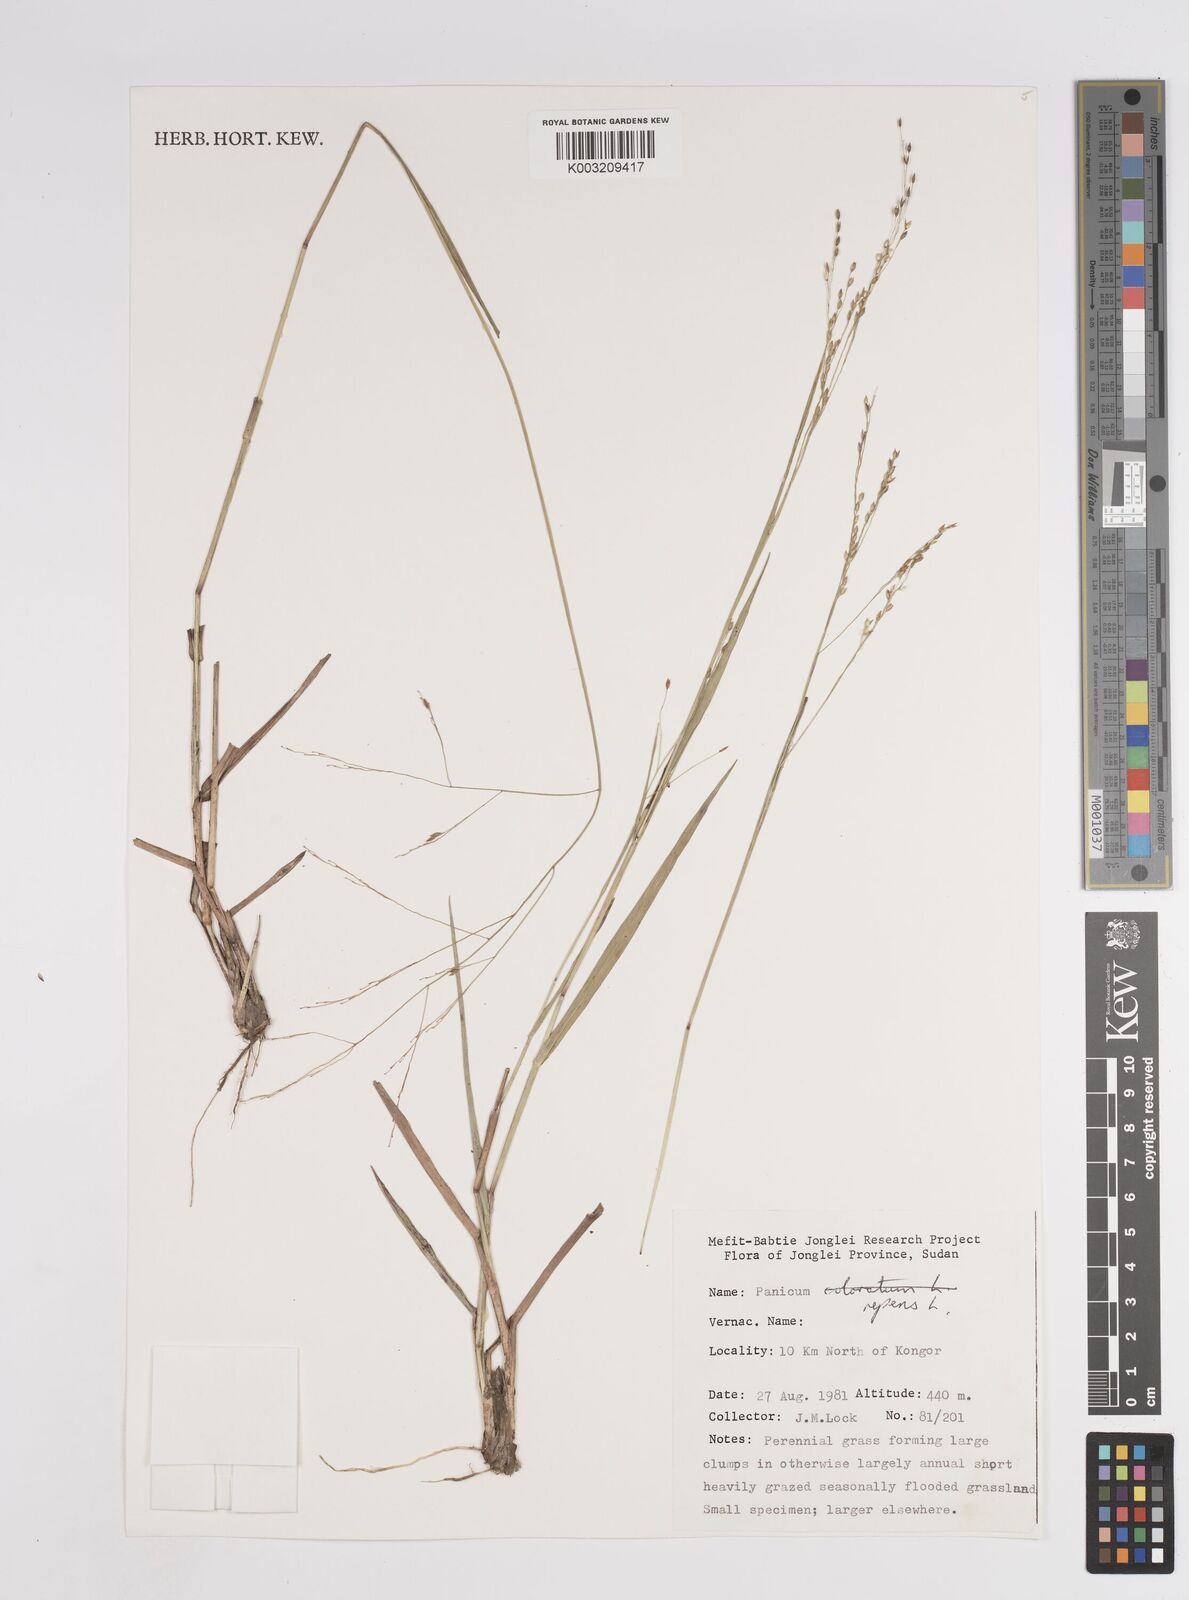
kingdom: Plantae
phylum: Tracheophyta
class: Liliopsida
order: Poales
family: Poaceae
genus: Panicum
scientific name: Panicum repens
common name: Torpedo grass
